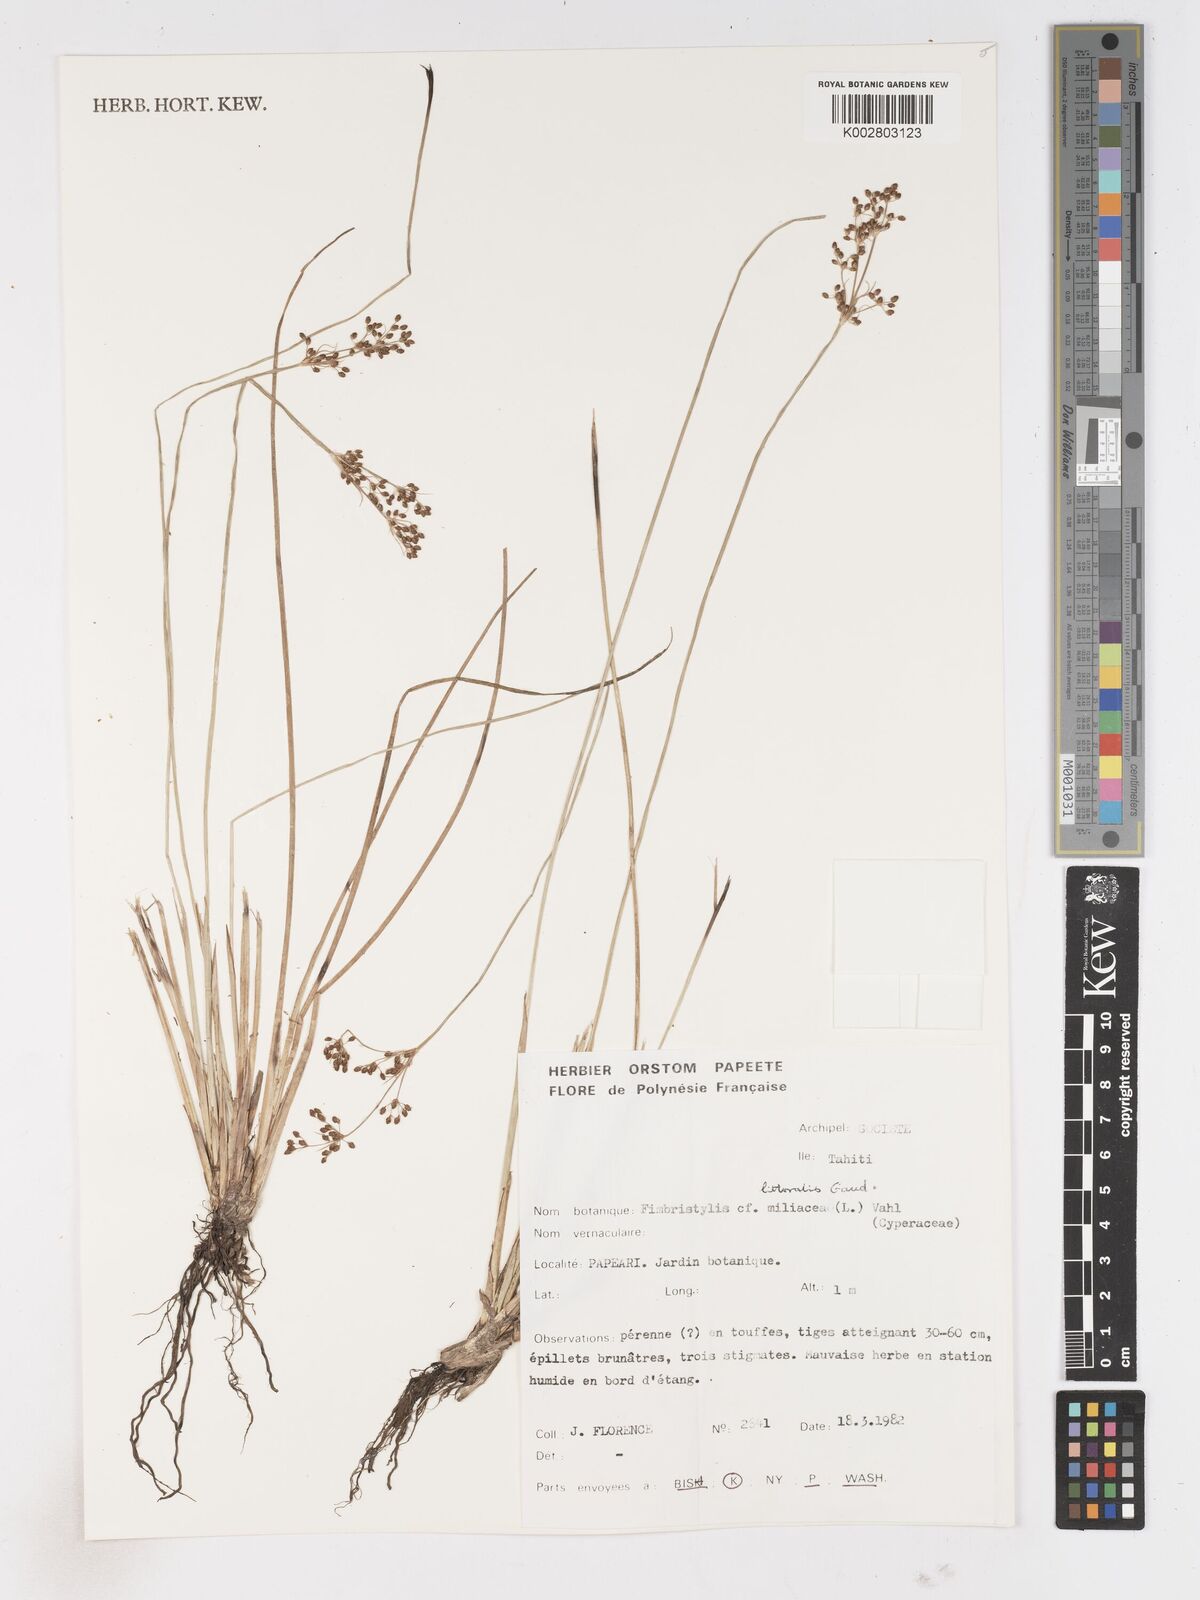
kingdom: Plantae
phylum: Tracheophyta
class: Liliopsida
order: Poales
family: Cyperaceae
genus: Fimbristylis
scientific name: Fimbristylis littoralis
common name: Fimbry
